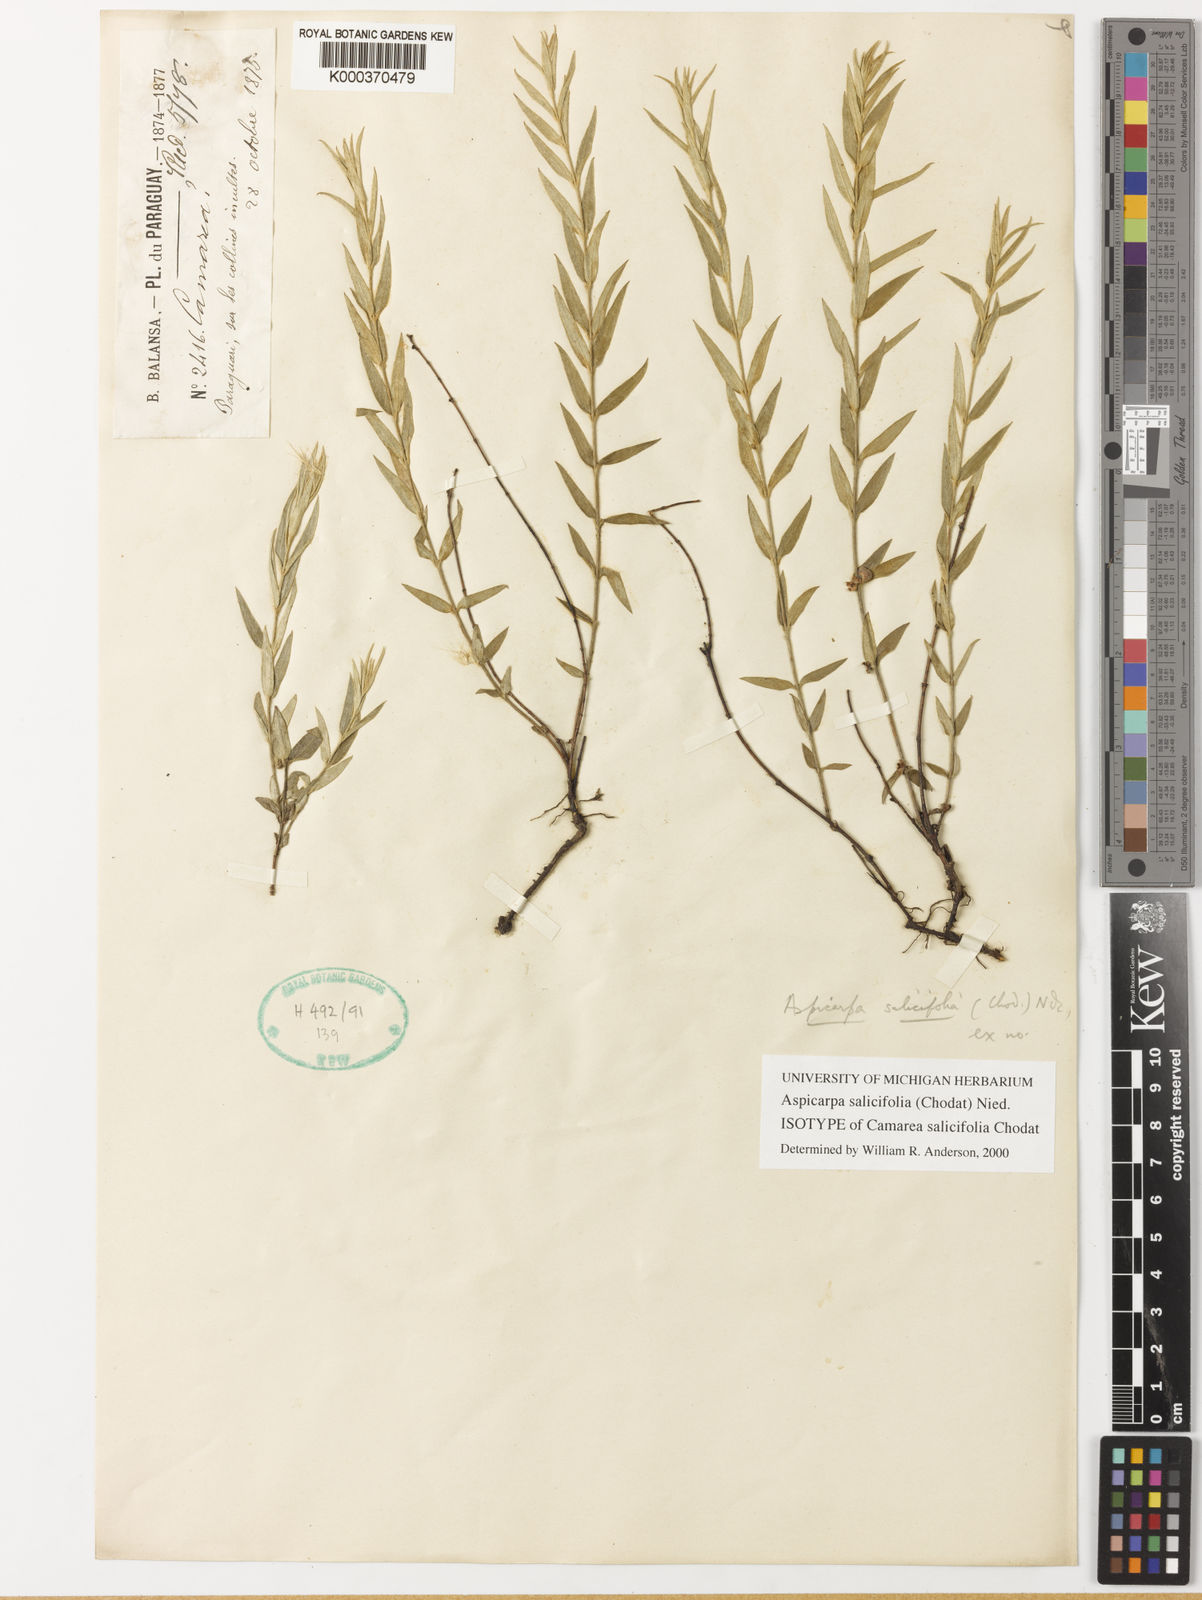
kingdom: Plantae
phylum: Tracheophyta
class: Magnoliopsida
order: Malpighiales
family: Malpighiaceae
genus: Aspicarpa
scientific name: Aspicarpa salicifolia
